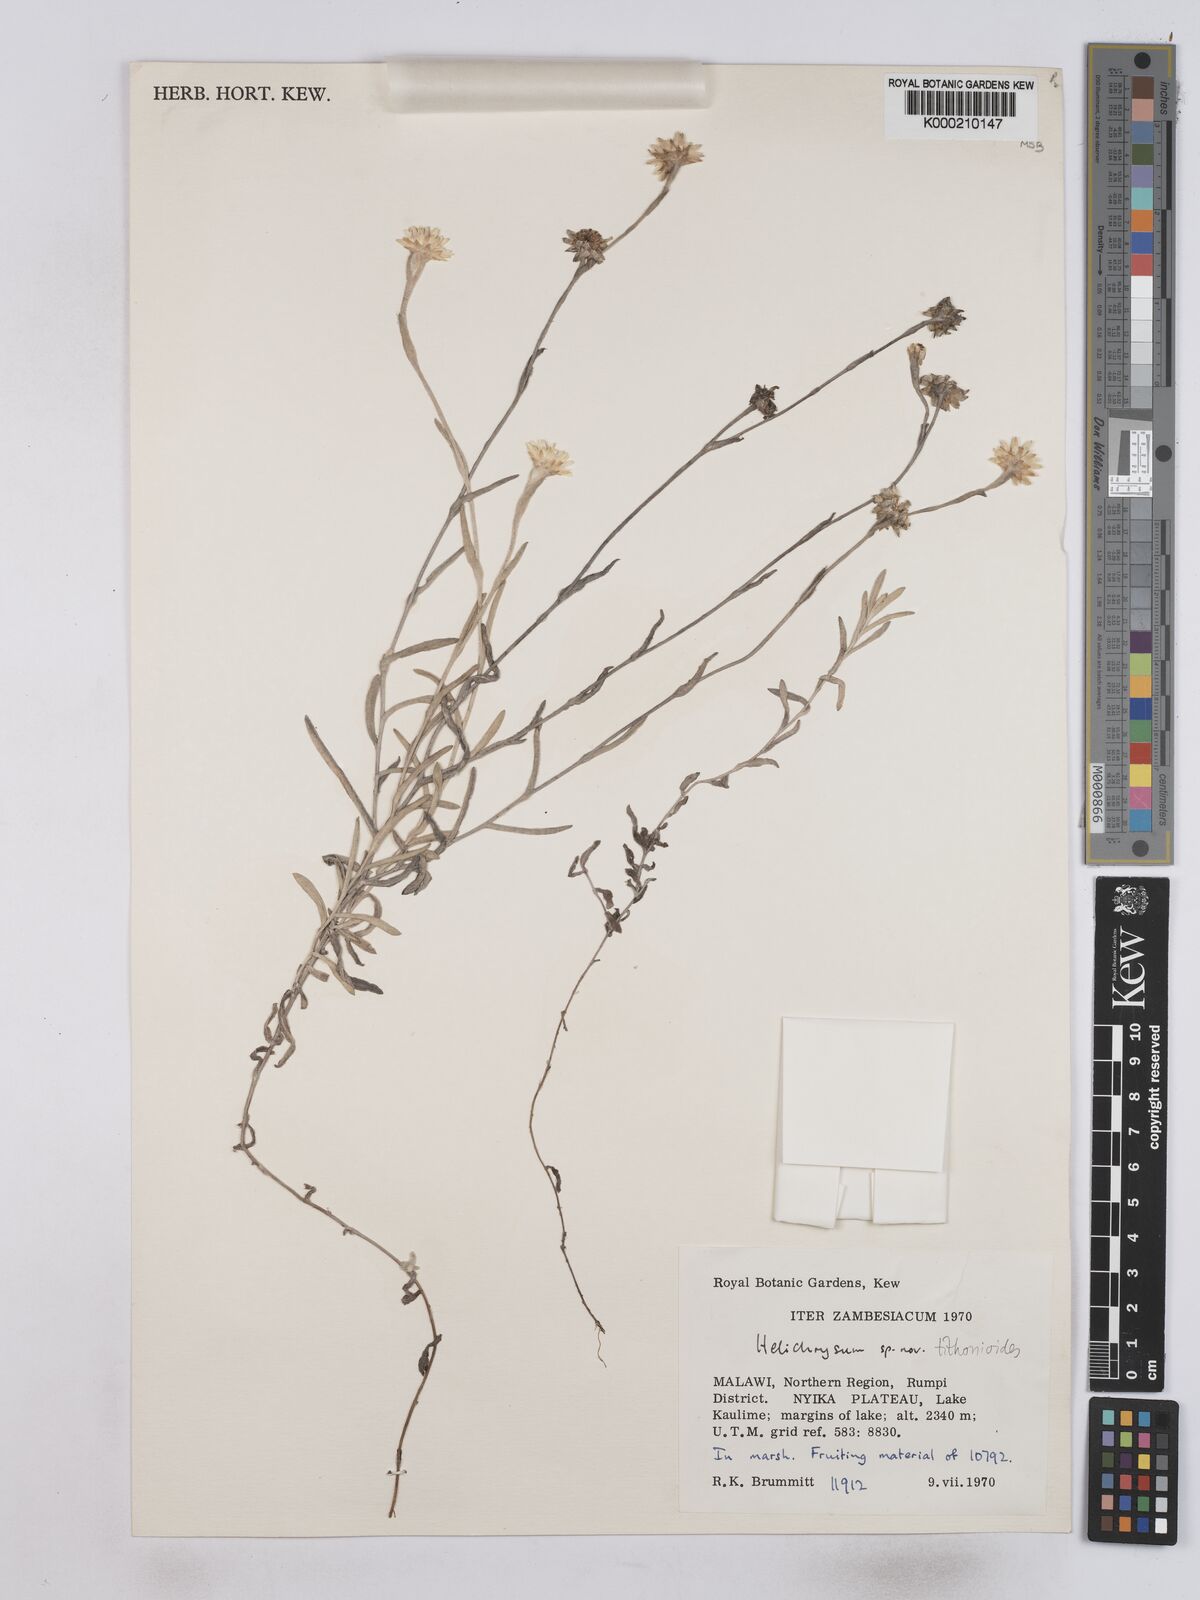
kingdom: Plantae
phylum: Tracheophyta
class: Magnoliopsida
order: Asterales
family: Asteraceae
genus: Helichrysum
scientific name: Helichrysum tithonioides
